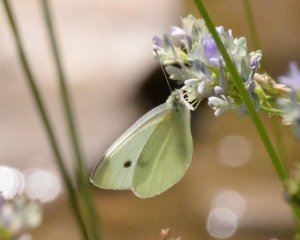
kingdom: Animalia
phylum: Arthropoda
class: Insecta
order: Lepidoptera
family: Pieridae
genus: Pieris
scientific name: Pieris rapae
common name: Cabbage White
